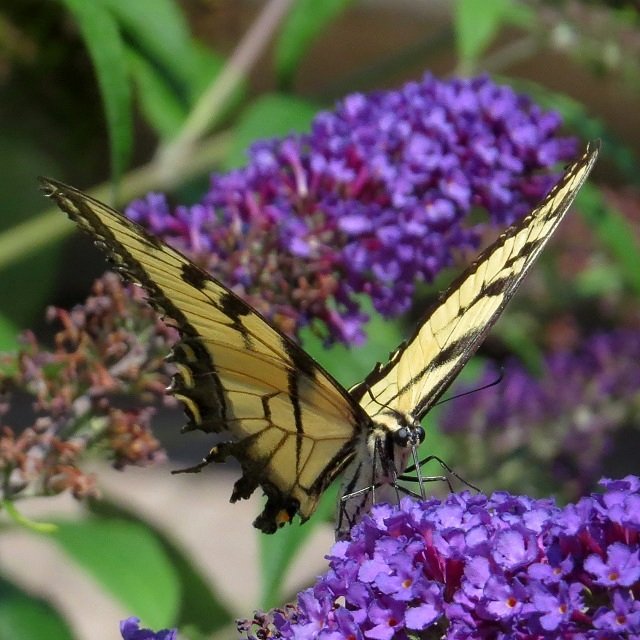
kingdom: Animalia
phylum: Arthropoda
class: Insecta
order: Lepidoptera
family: Papilionidae
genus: Pterourus
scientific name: Pterourus glaucus
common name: Eastern Tiger Swallowtail
